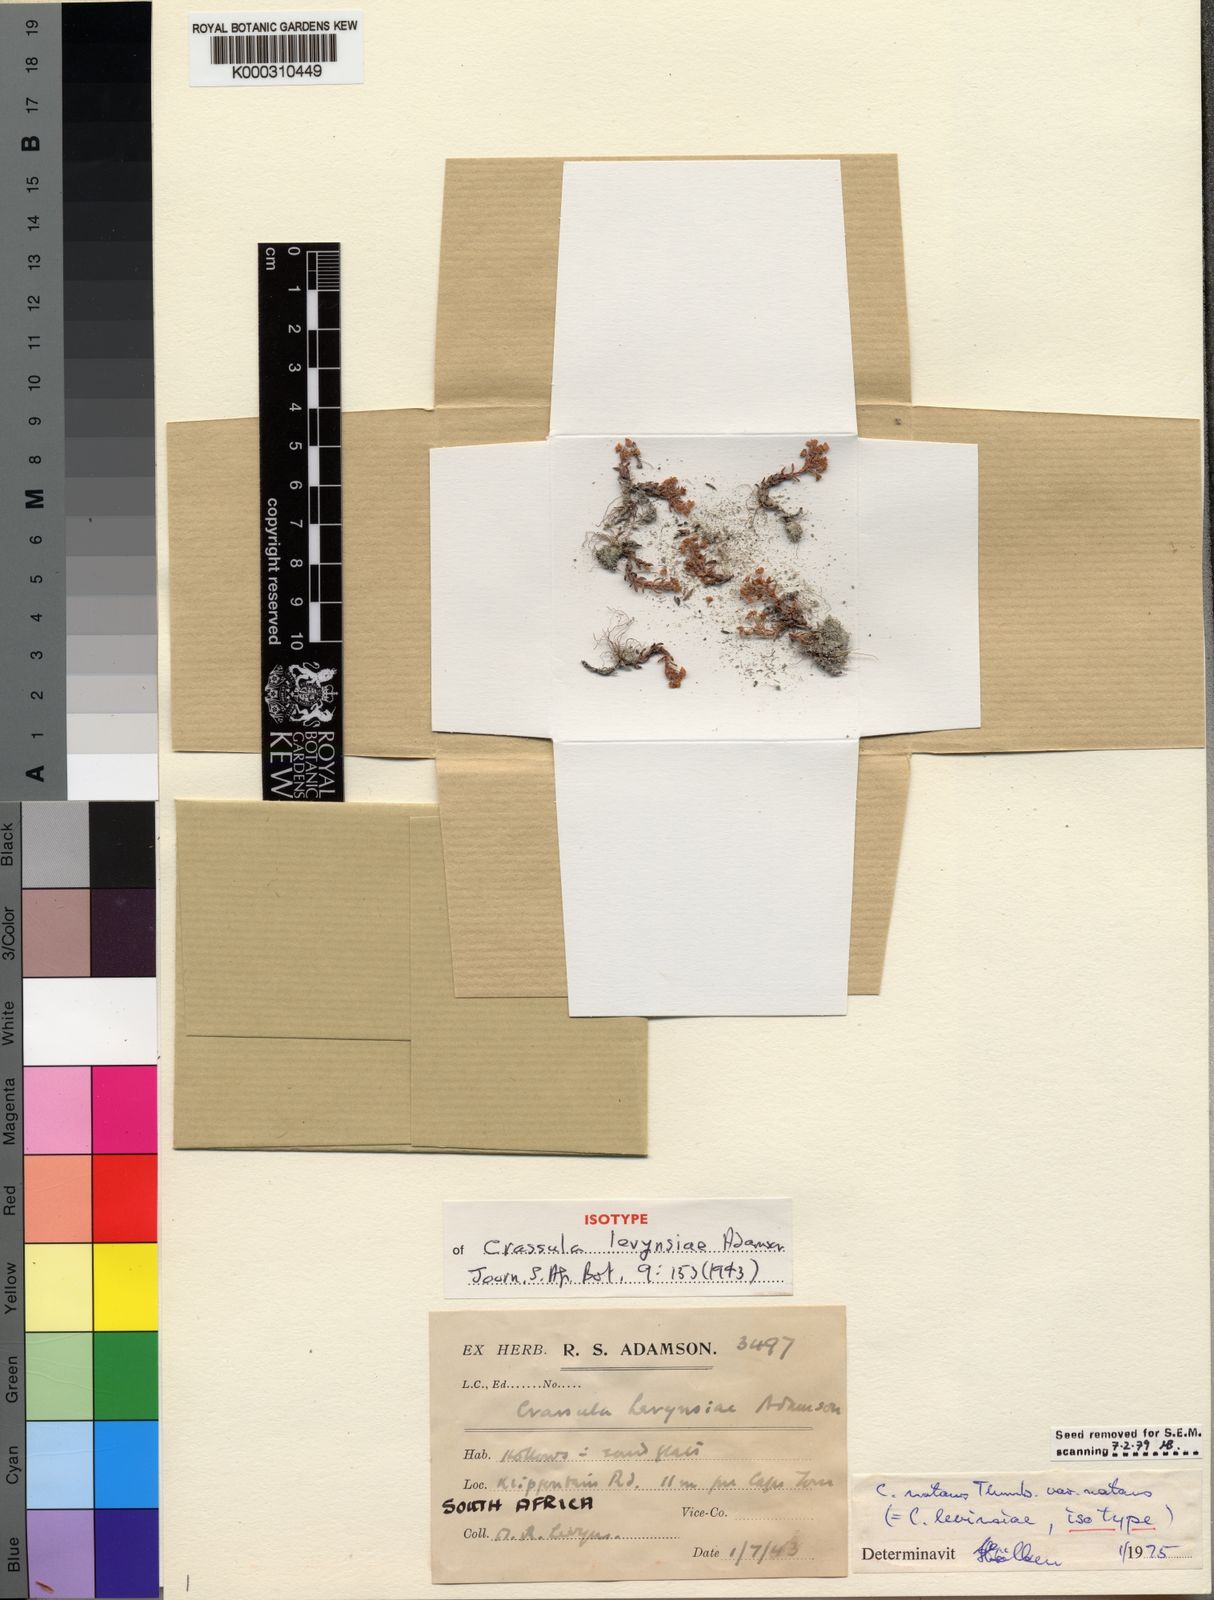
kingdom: Plantae
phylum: Tracheophyta
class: Magnoliopsida
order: Saxifragales
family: Crassulaceae
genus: Crassula
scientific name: Crassula natans
